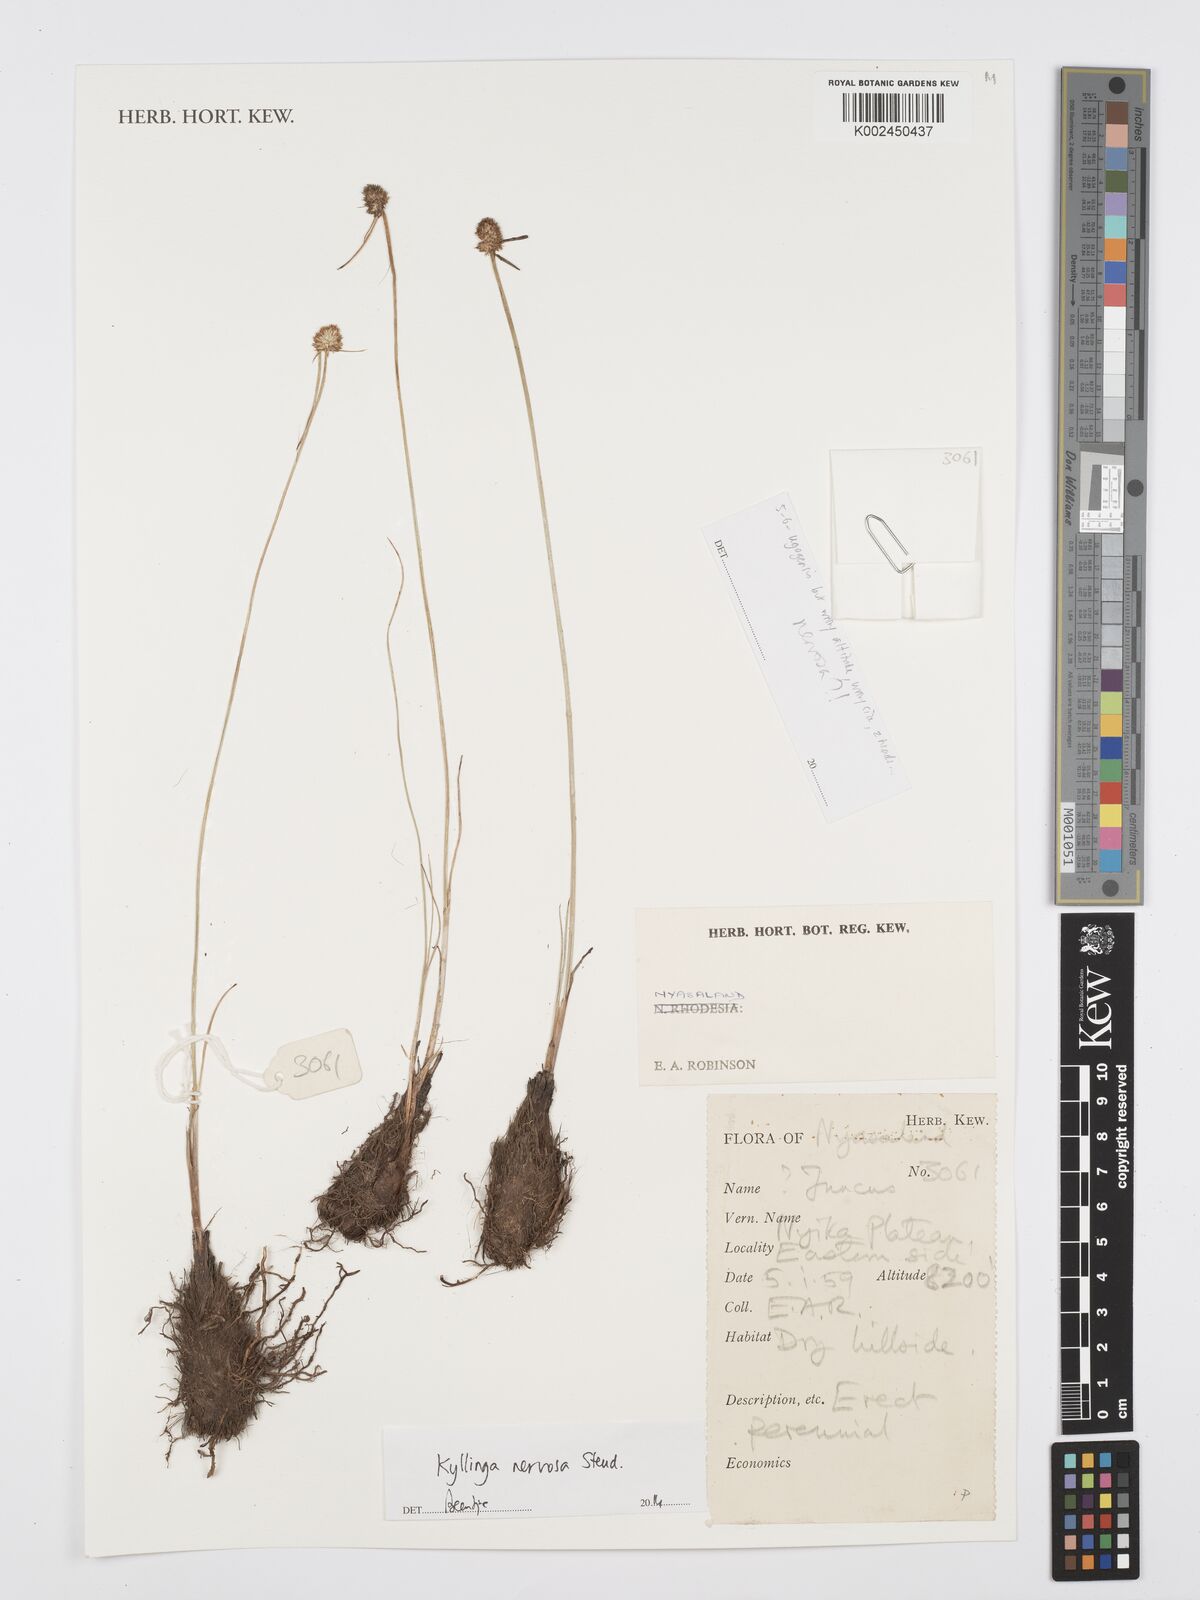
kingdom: Plantae
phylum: Tracheophyta
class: Liliopsida
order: Poales
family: Cyperaceae
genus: Cyperus
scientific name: Cyperus
